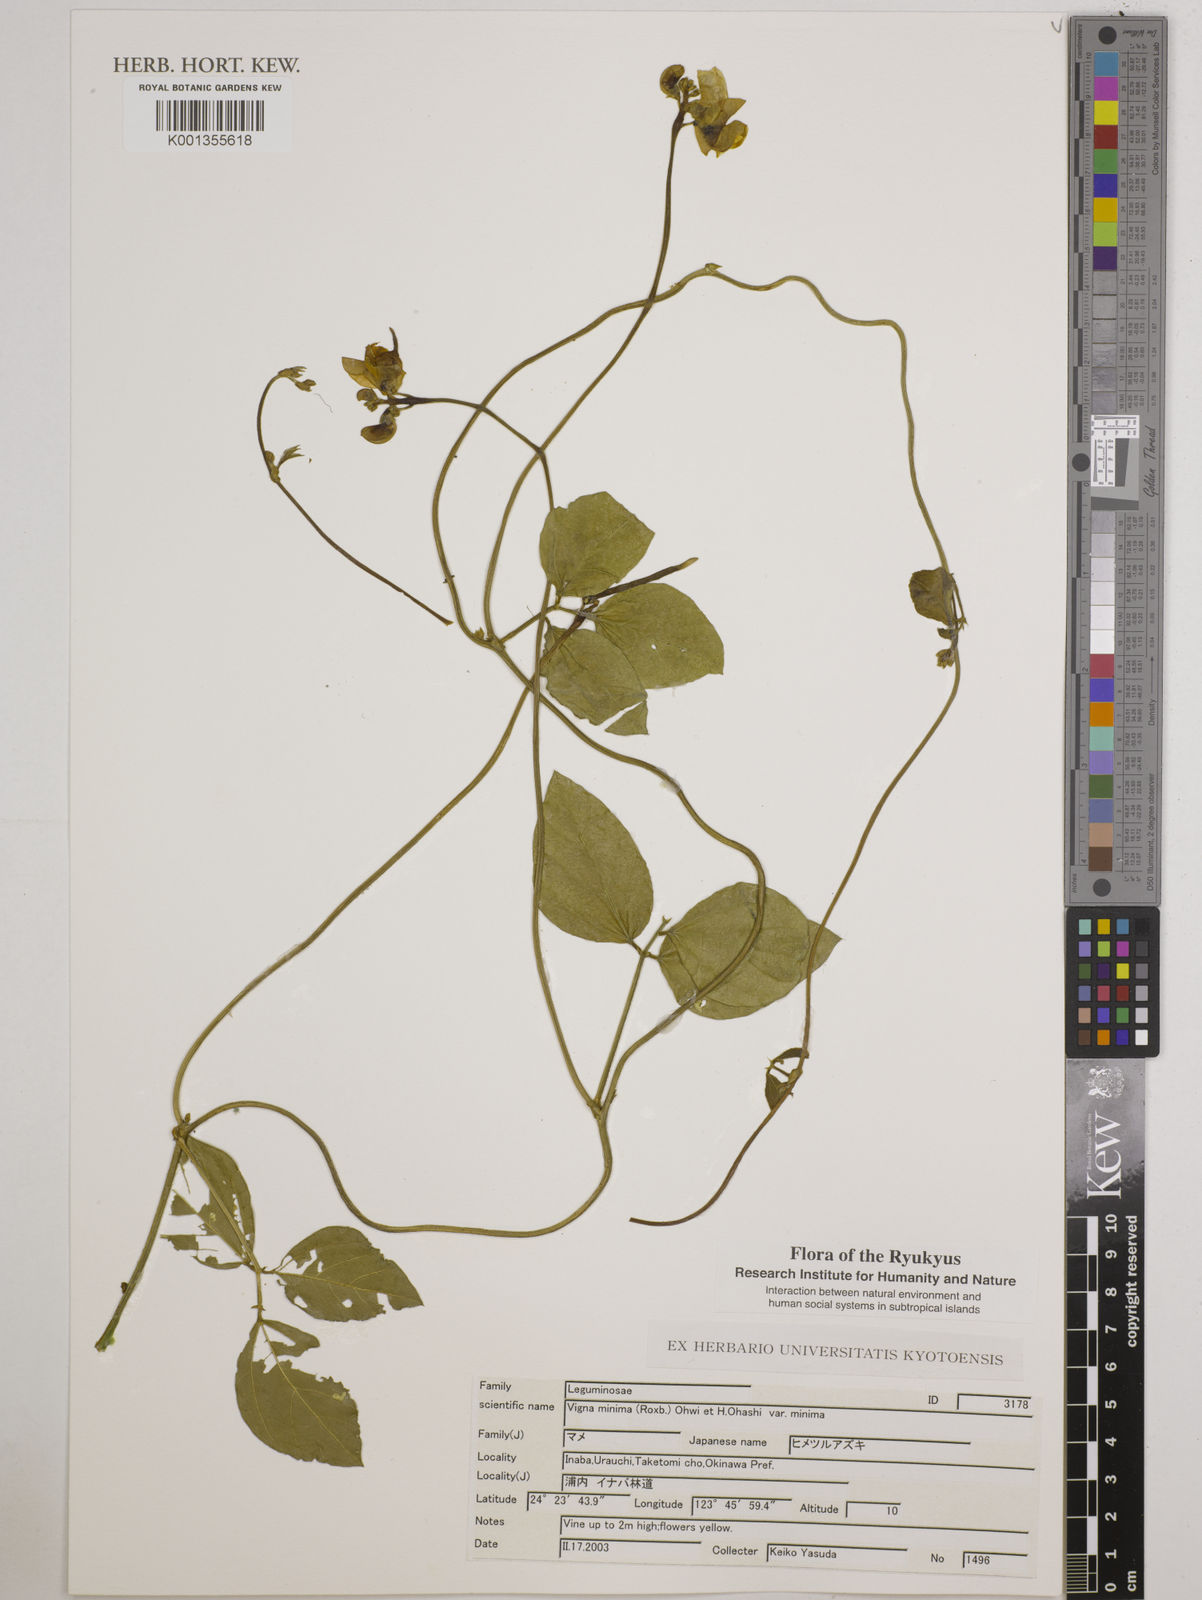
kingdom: Plantae
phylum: Tracheophyta
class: Magnoliopsida
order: Fabales
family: Fabaceae
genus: Vigna
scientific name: Vigna minima
